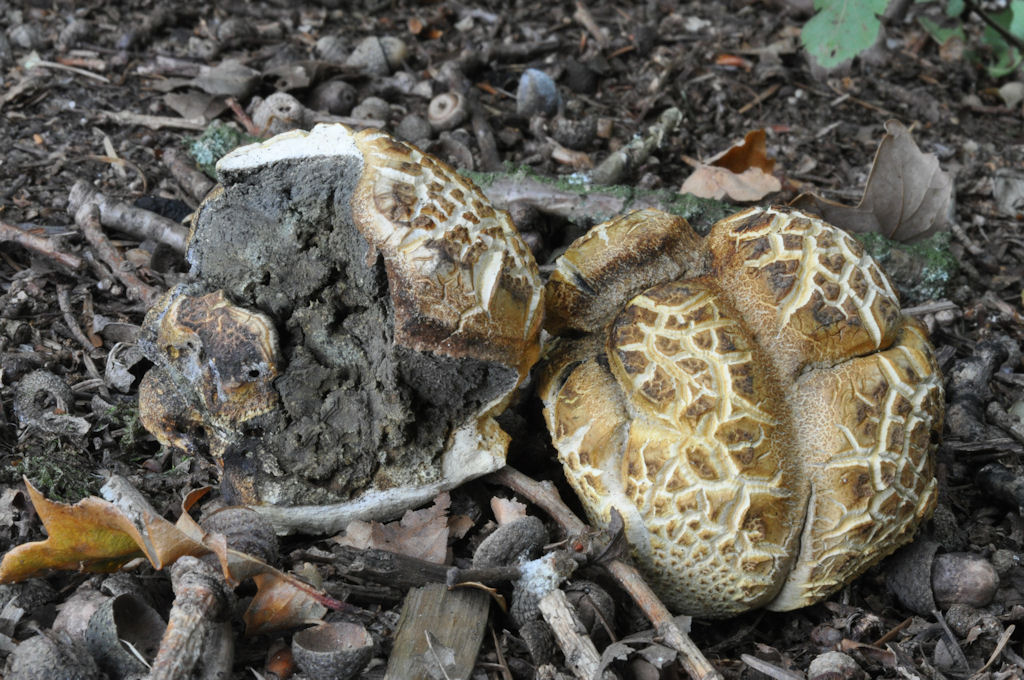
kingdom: Fungi
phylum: Basidiomycota
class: Agaricomycetes
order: Boletales
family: Sclerodermataceae
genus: Scleroderma
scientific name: Scleroderma citrinum
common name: almindelig bruskbold
